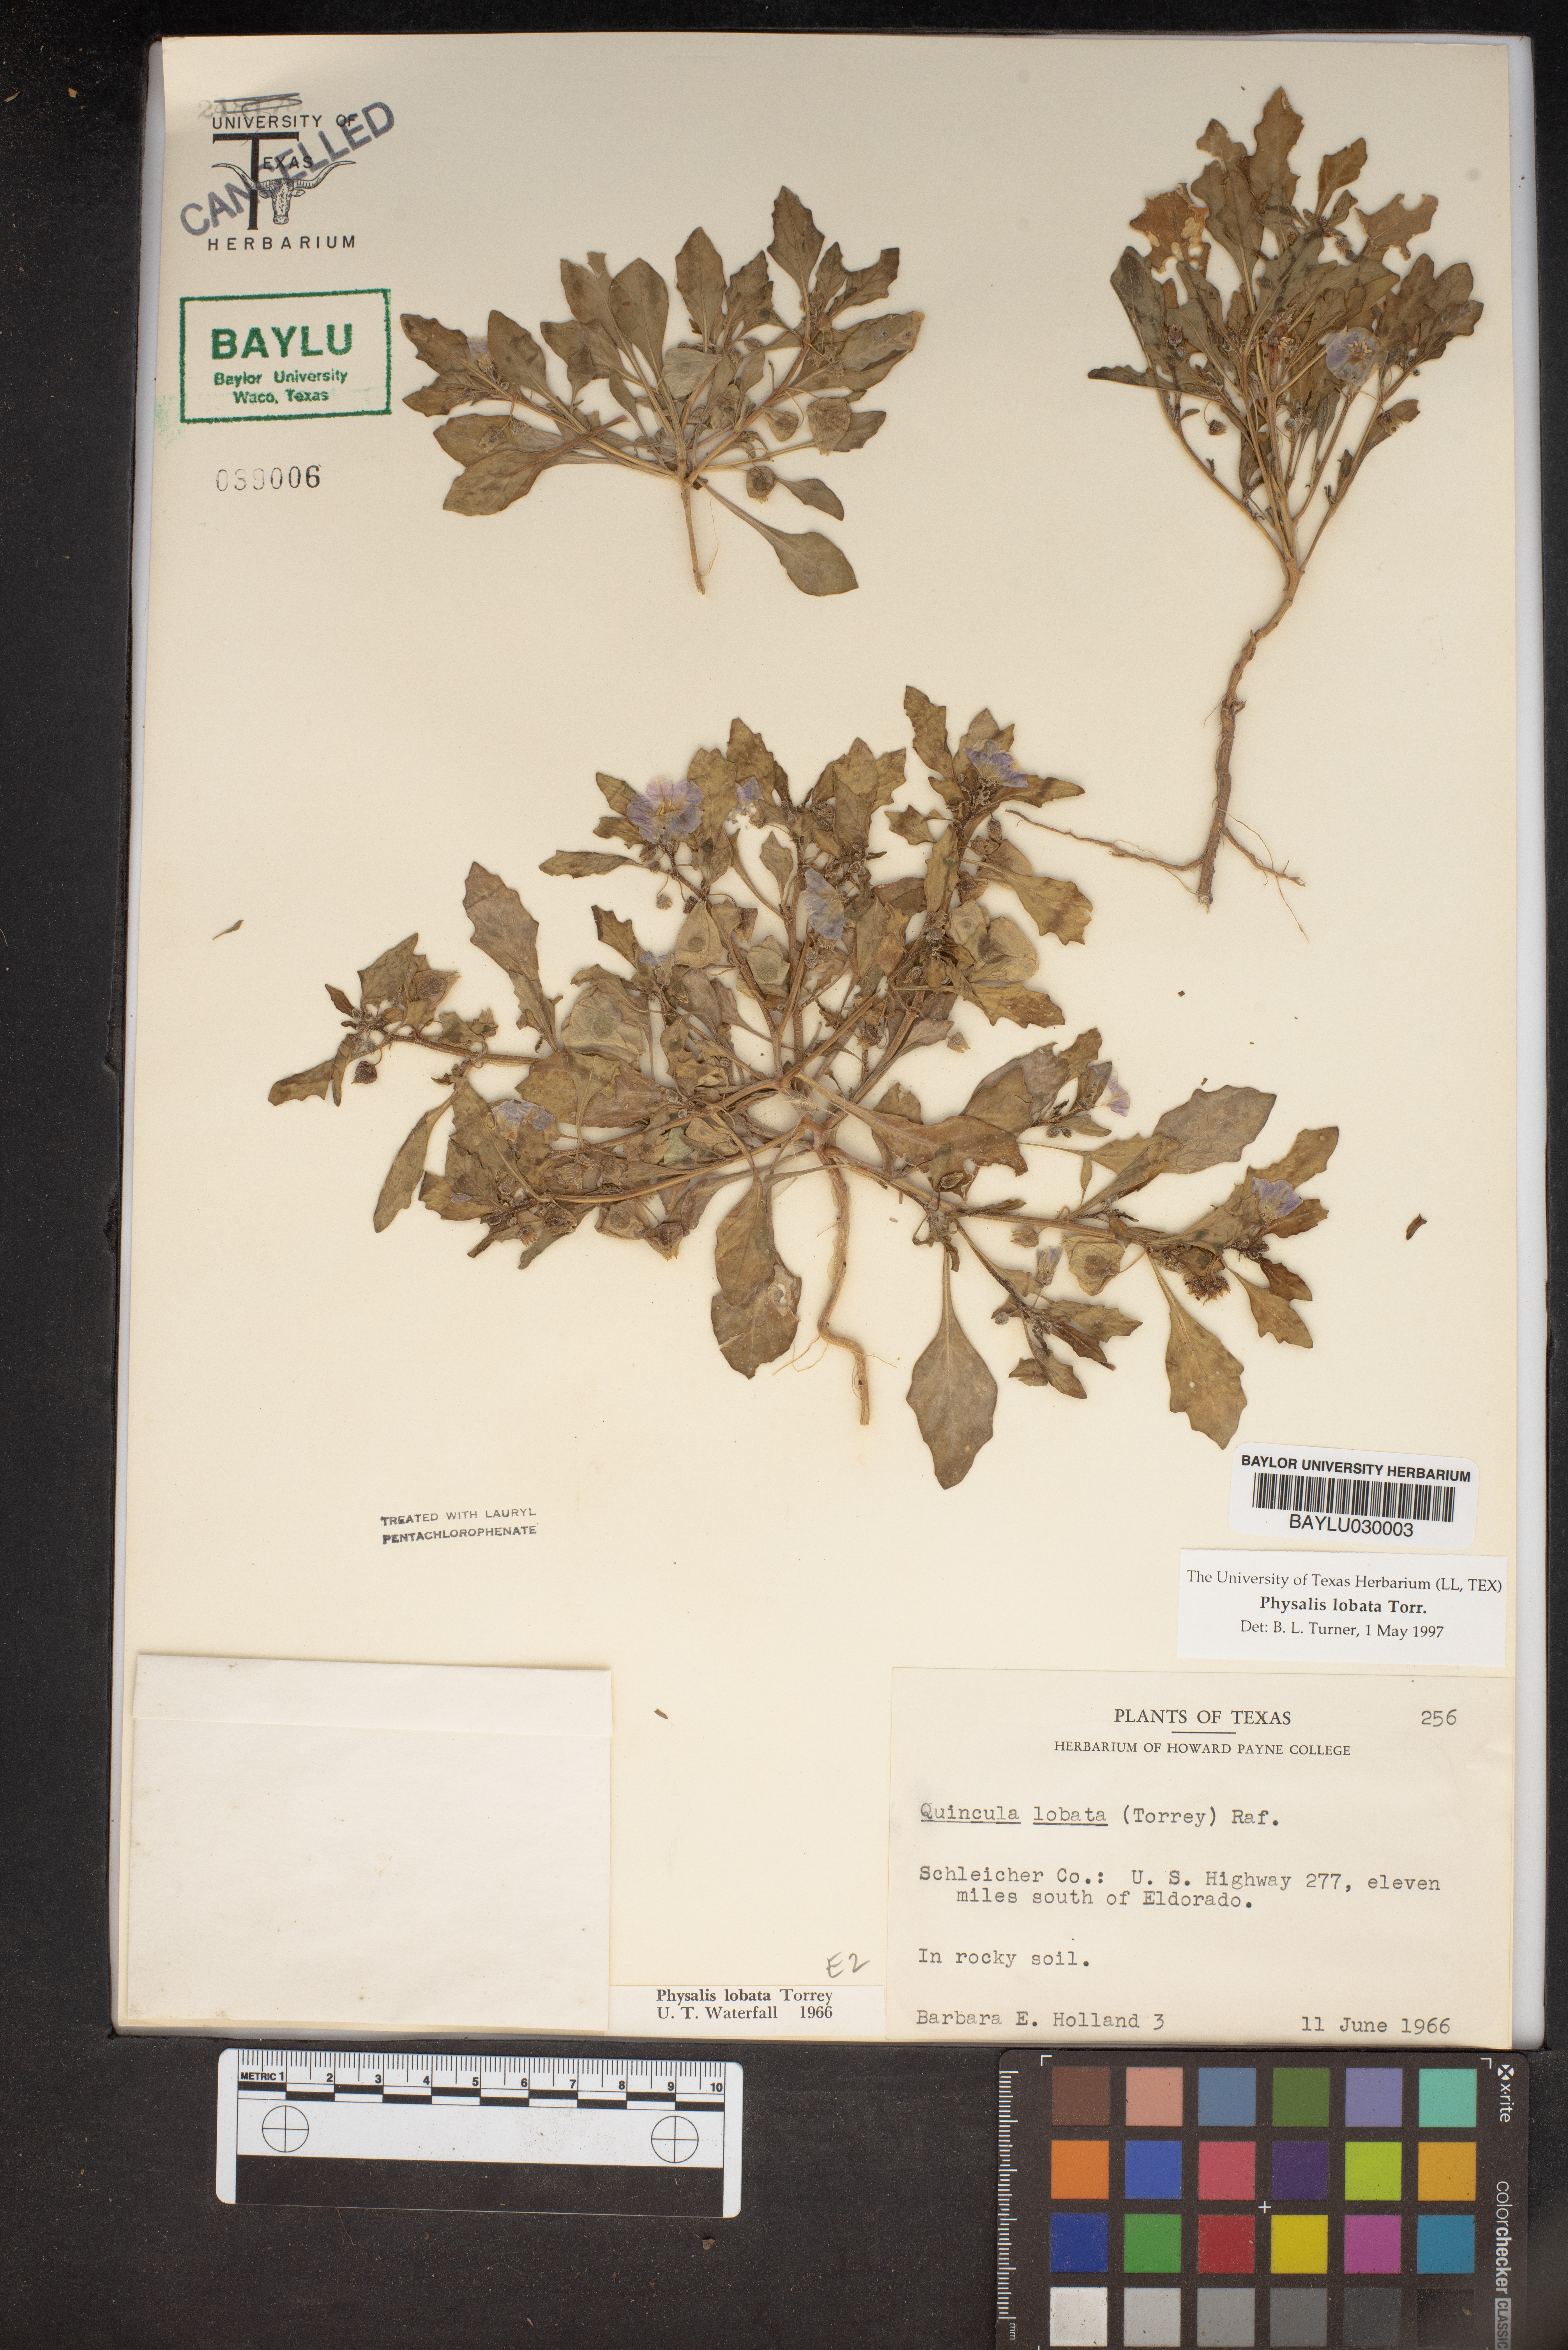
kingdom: Plantae
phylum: Tracheophyta
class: Magnoliopsida
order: Solanales
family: Solanaceae
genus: Quincula
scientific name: Quincula lobata
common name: Purple-ground-cherry
